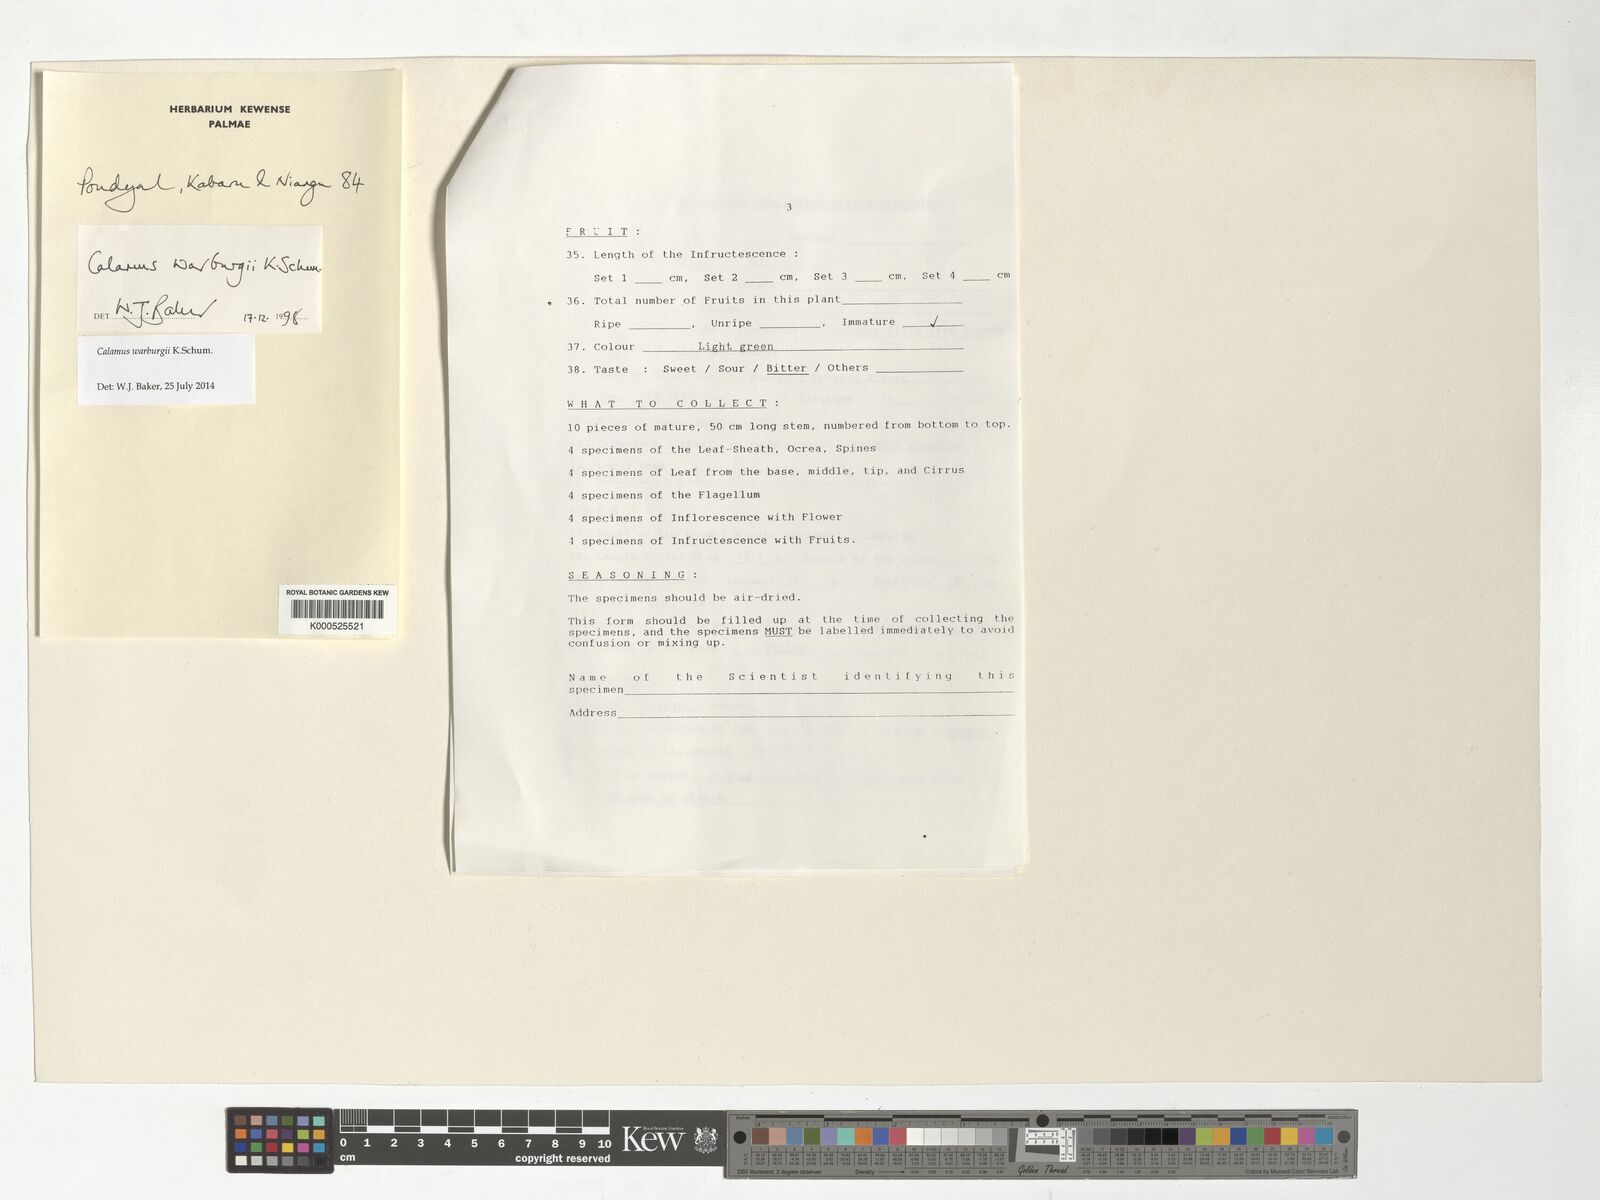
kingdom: Plantae
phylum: Tracheophyta
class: Liliopsida
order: Arecales
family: Arecaceae
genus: Calamus
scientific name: Calamus warburgii
